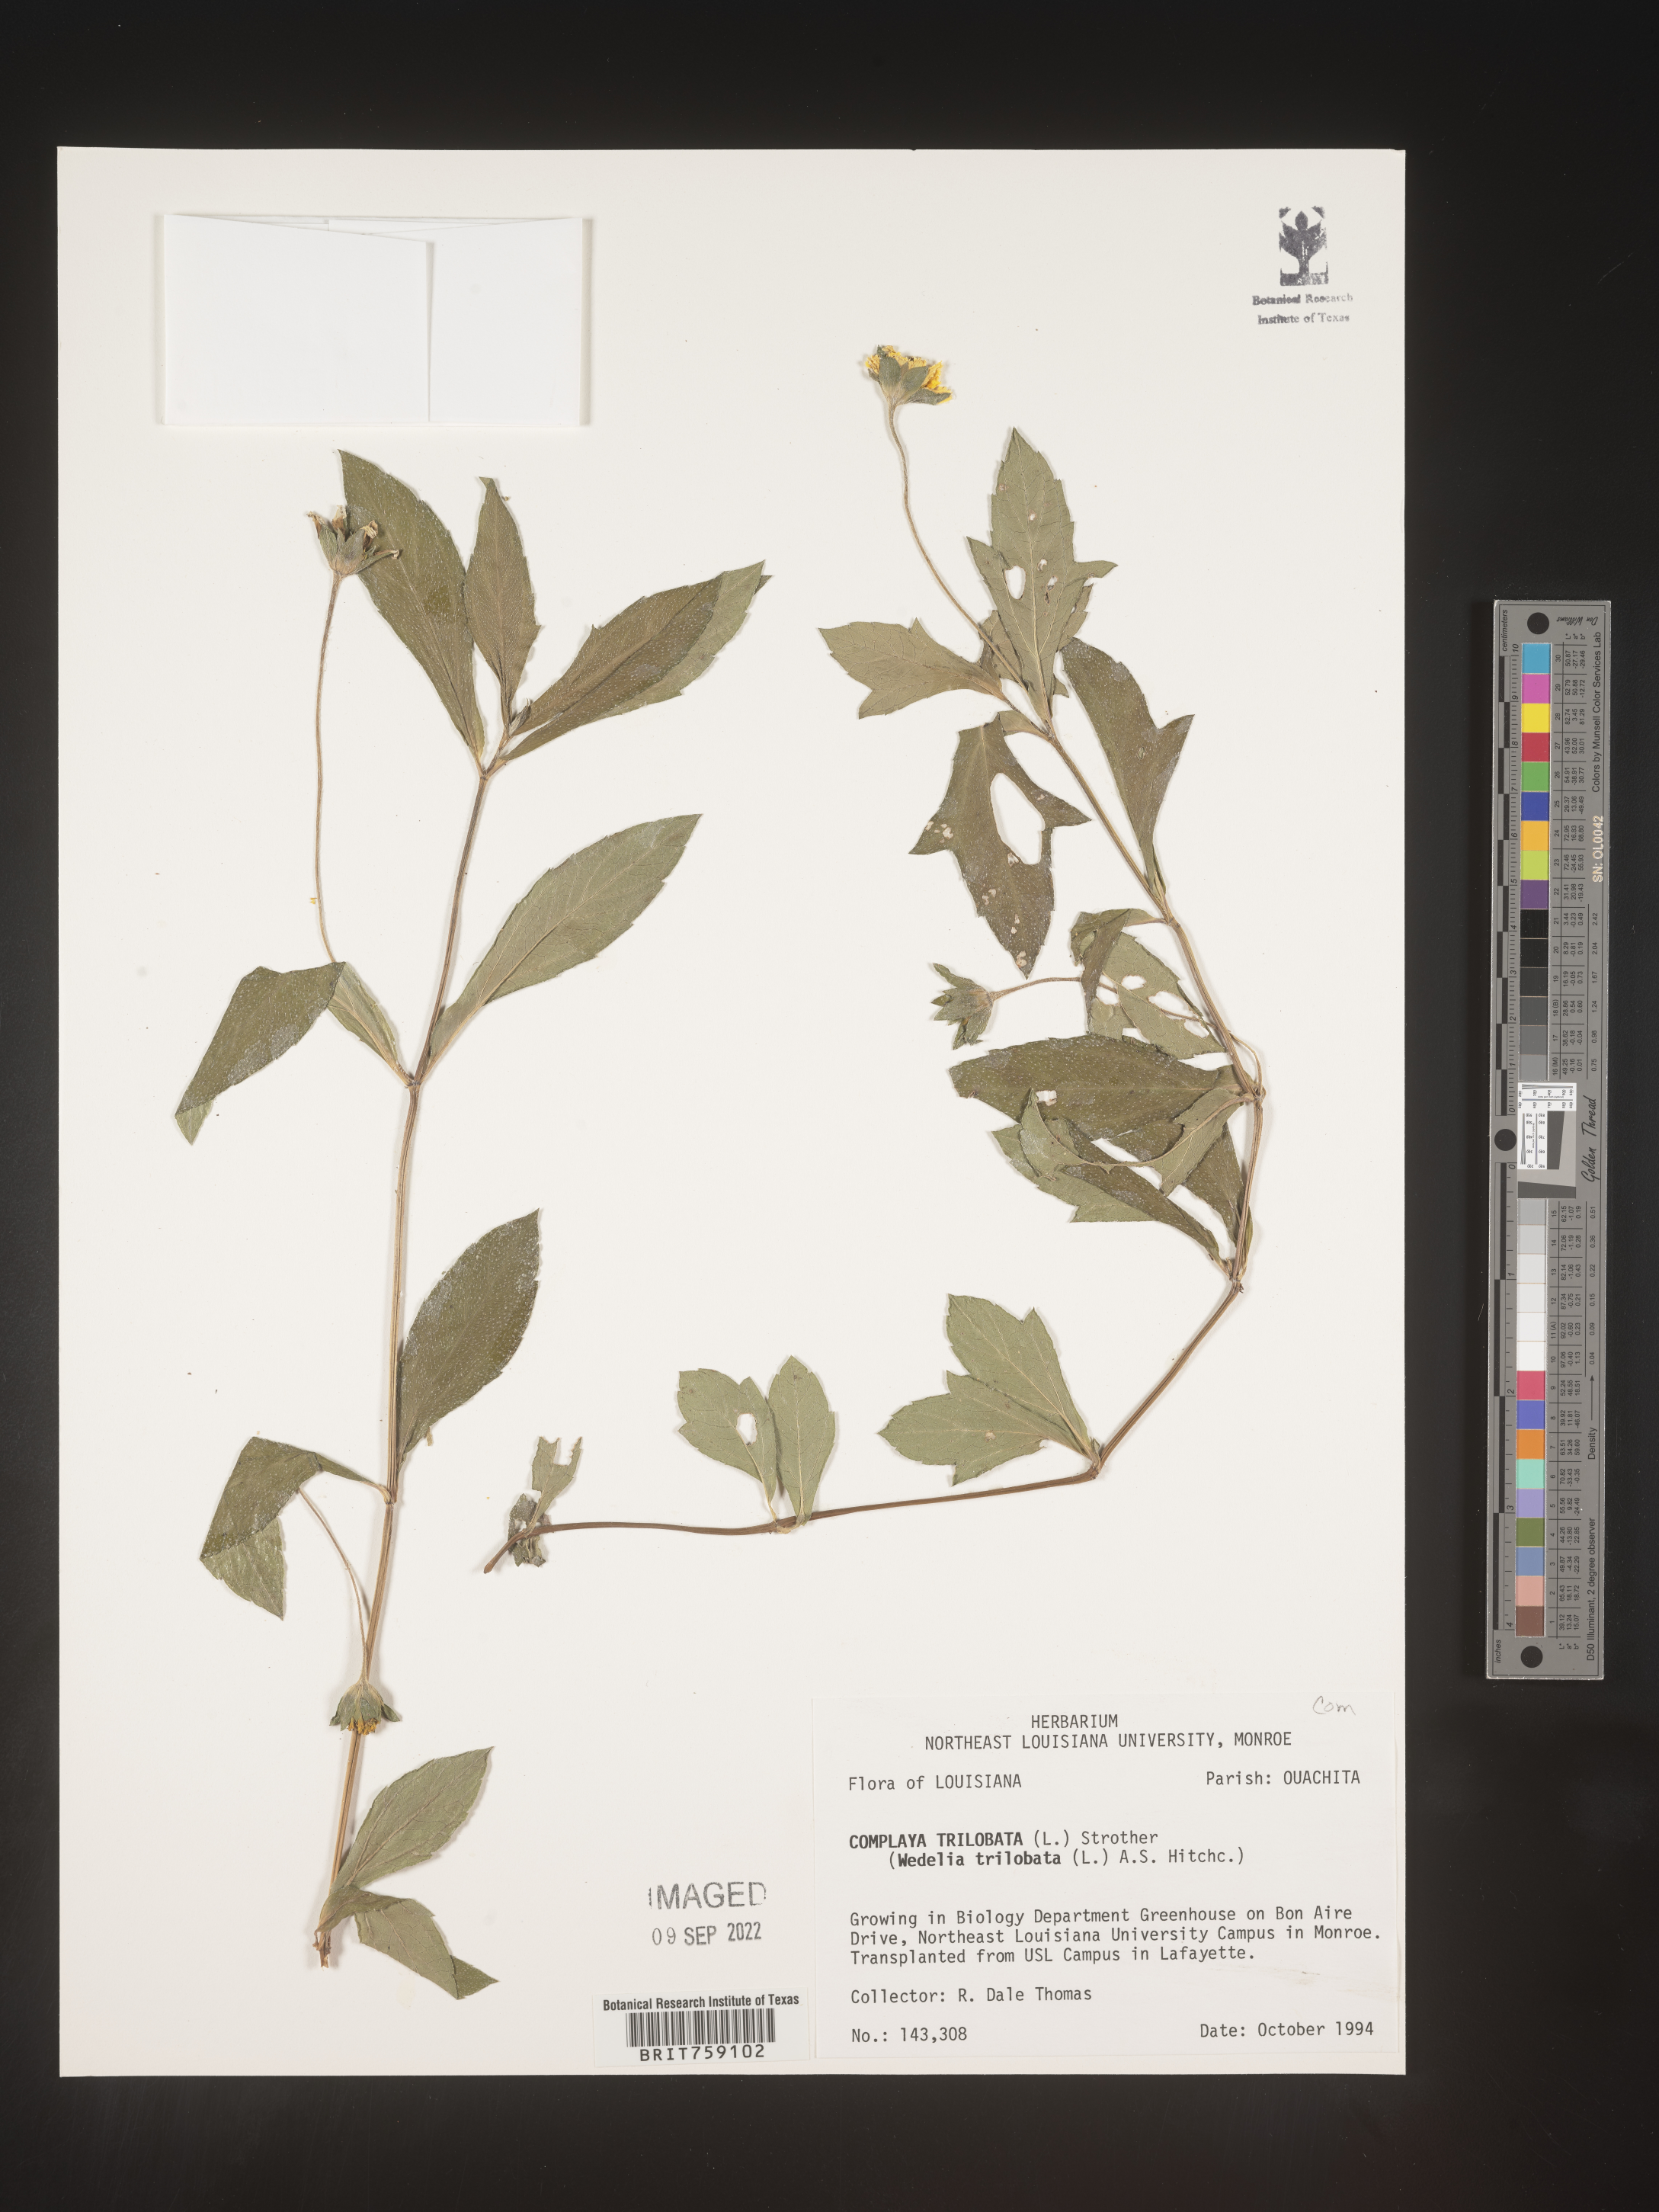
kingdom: Plantae
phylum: Tracheophyta
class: Magnoliopsida
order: Asterales
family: Asteraceae
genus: Sphagneticola
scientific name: Sphagneticola trilobata
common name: Bay biscayne creeping-oxeye
